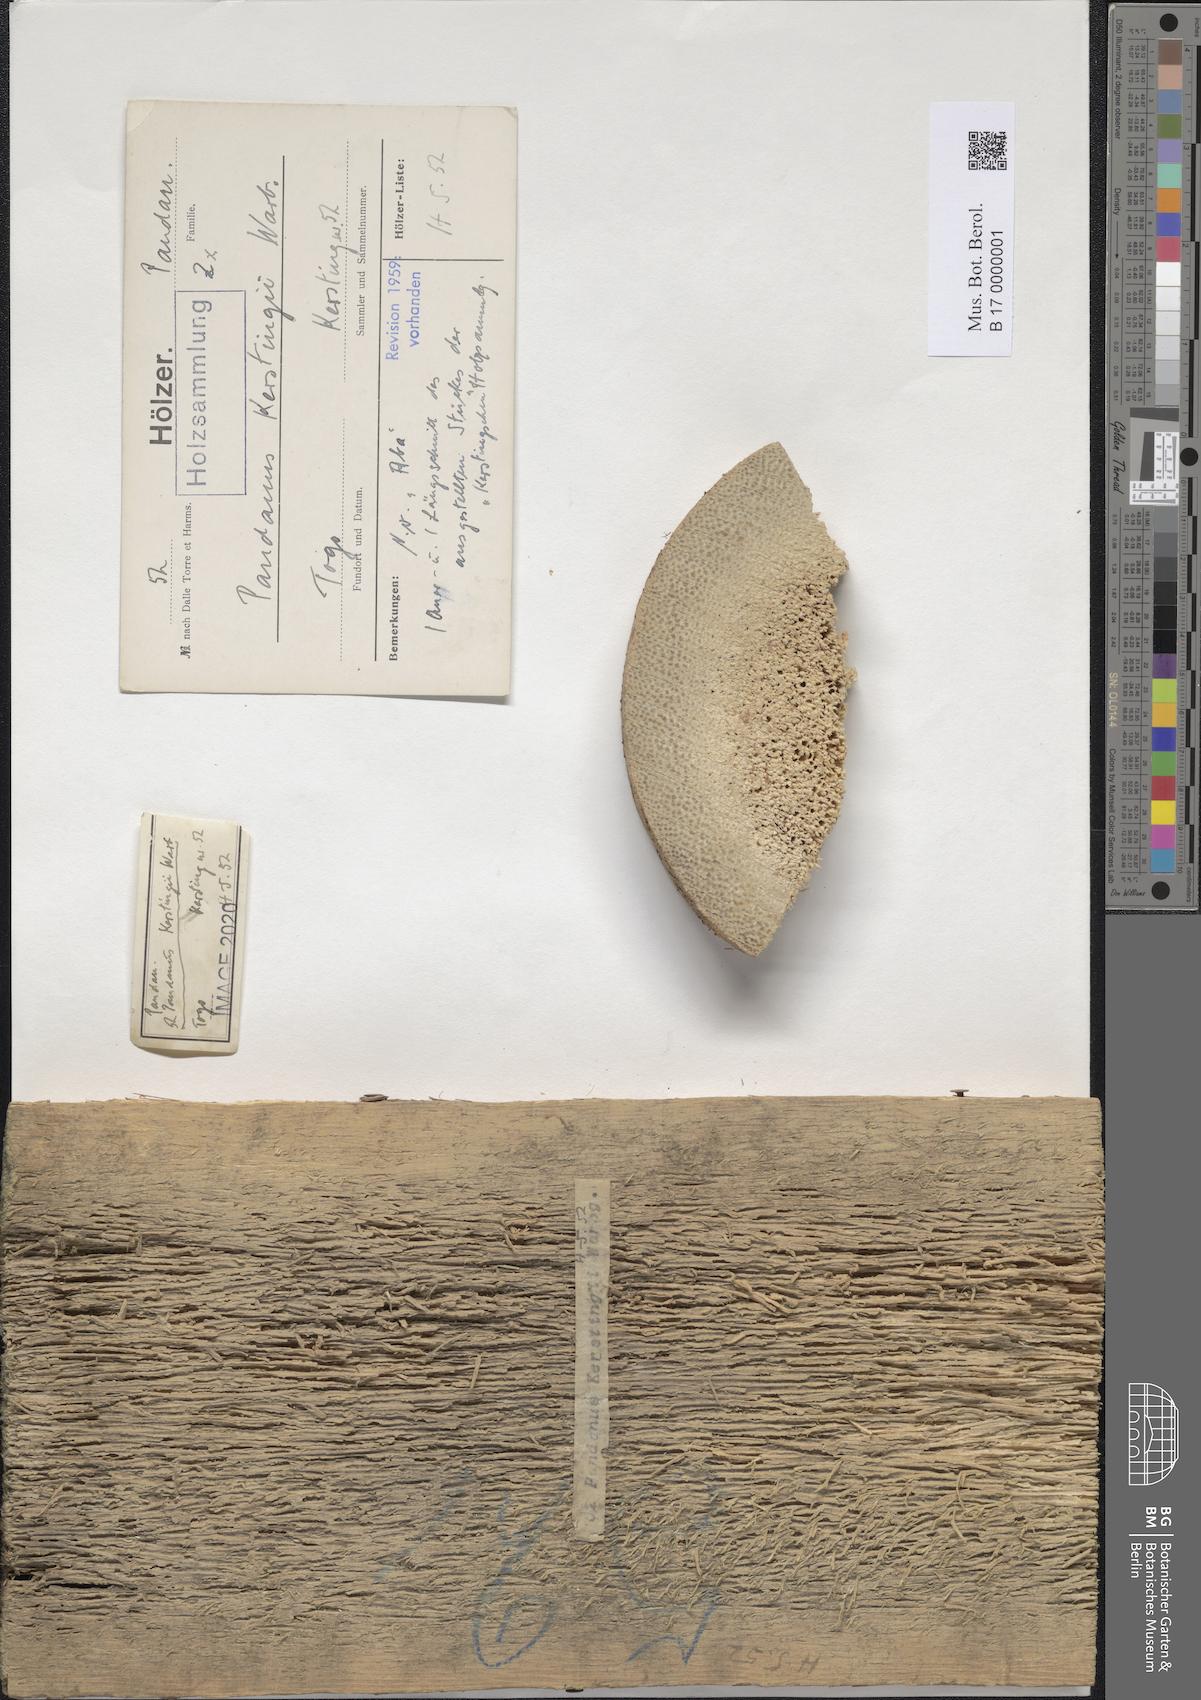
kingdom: Plantae
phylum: Tracheophyta
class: Liliopsida
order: Pandanales
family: Pandanaceae
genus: Pandanus
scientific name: Pandanus candelabrum
